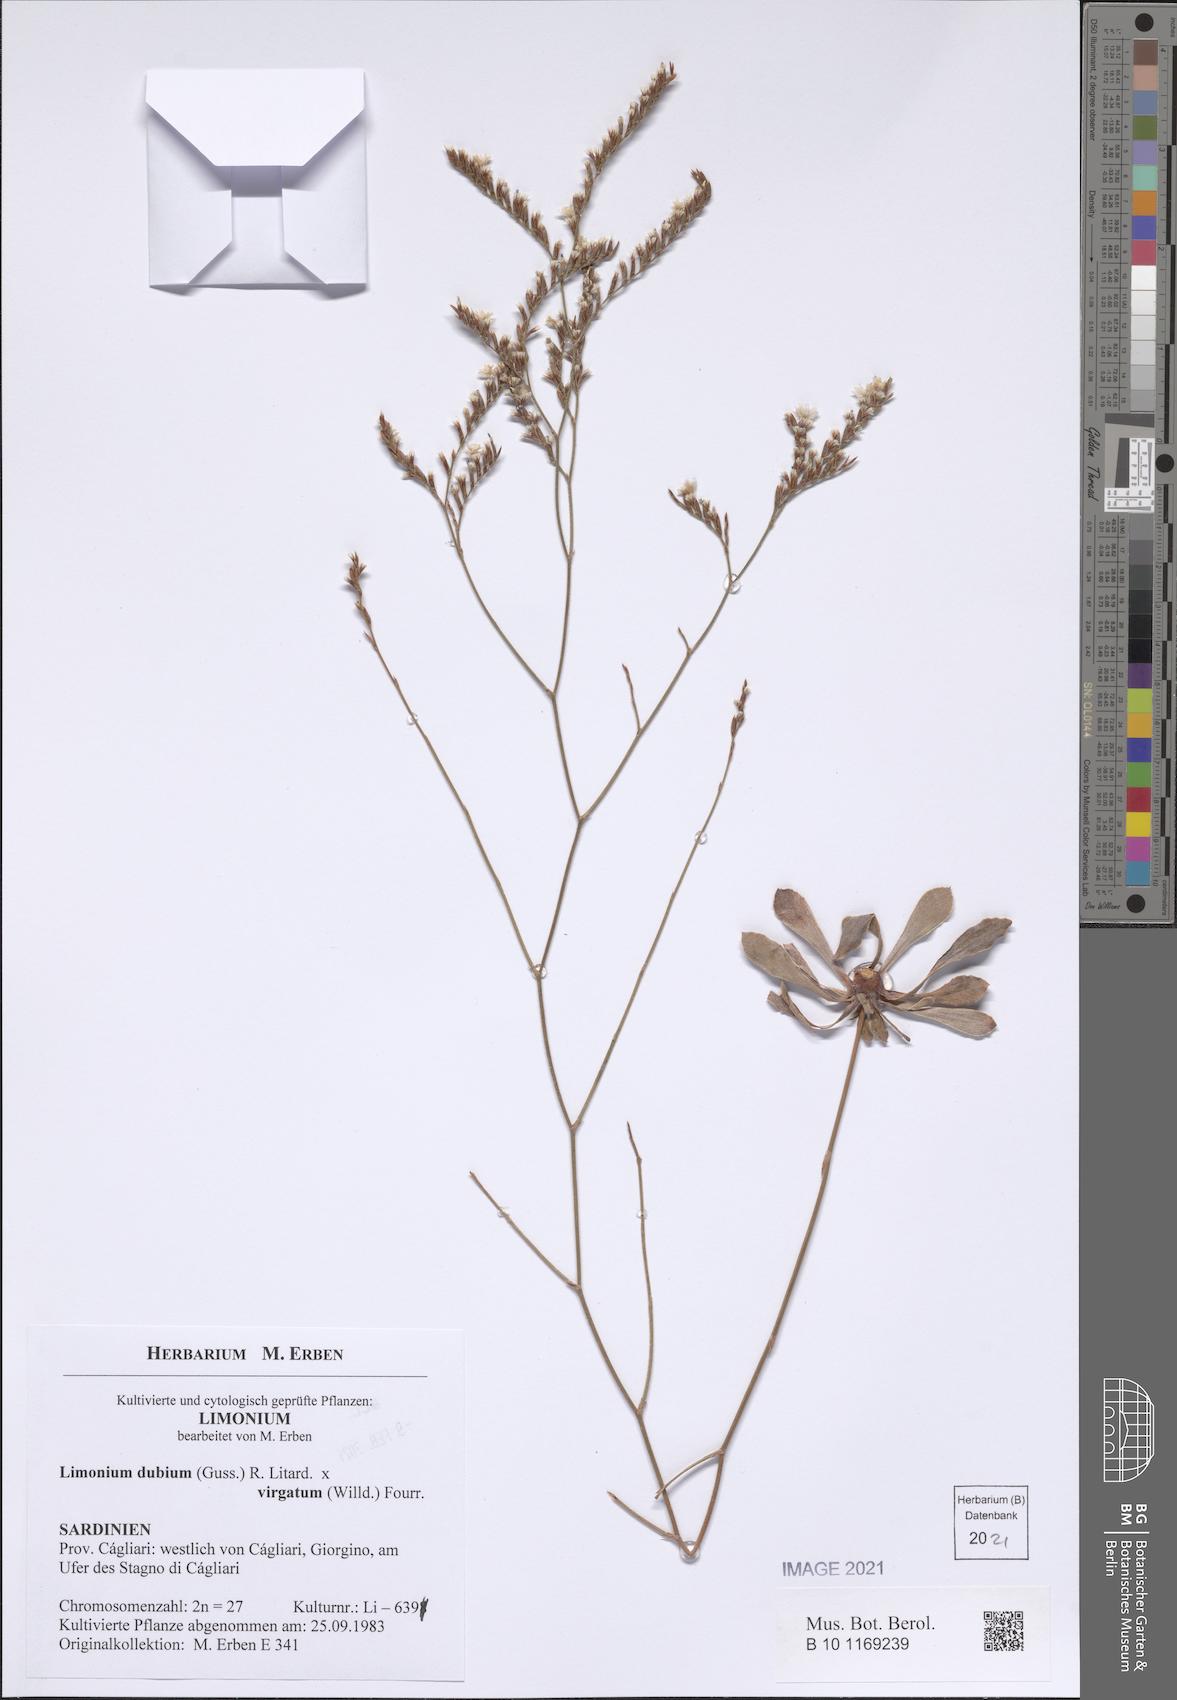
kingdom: Plantae
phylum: Tracheophyta
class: Magnoliopsida
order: Caryophyllales
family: Plumbaginaceae
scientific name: Plumbaginaceae
